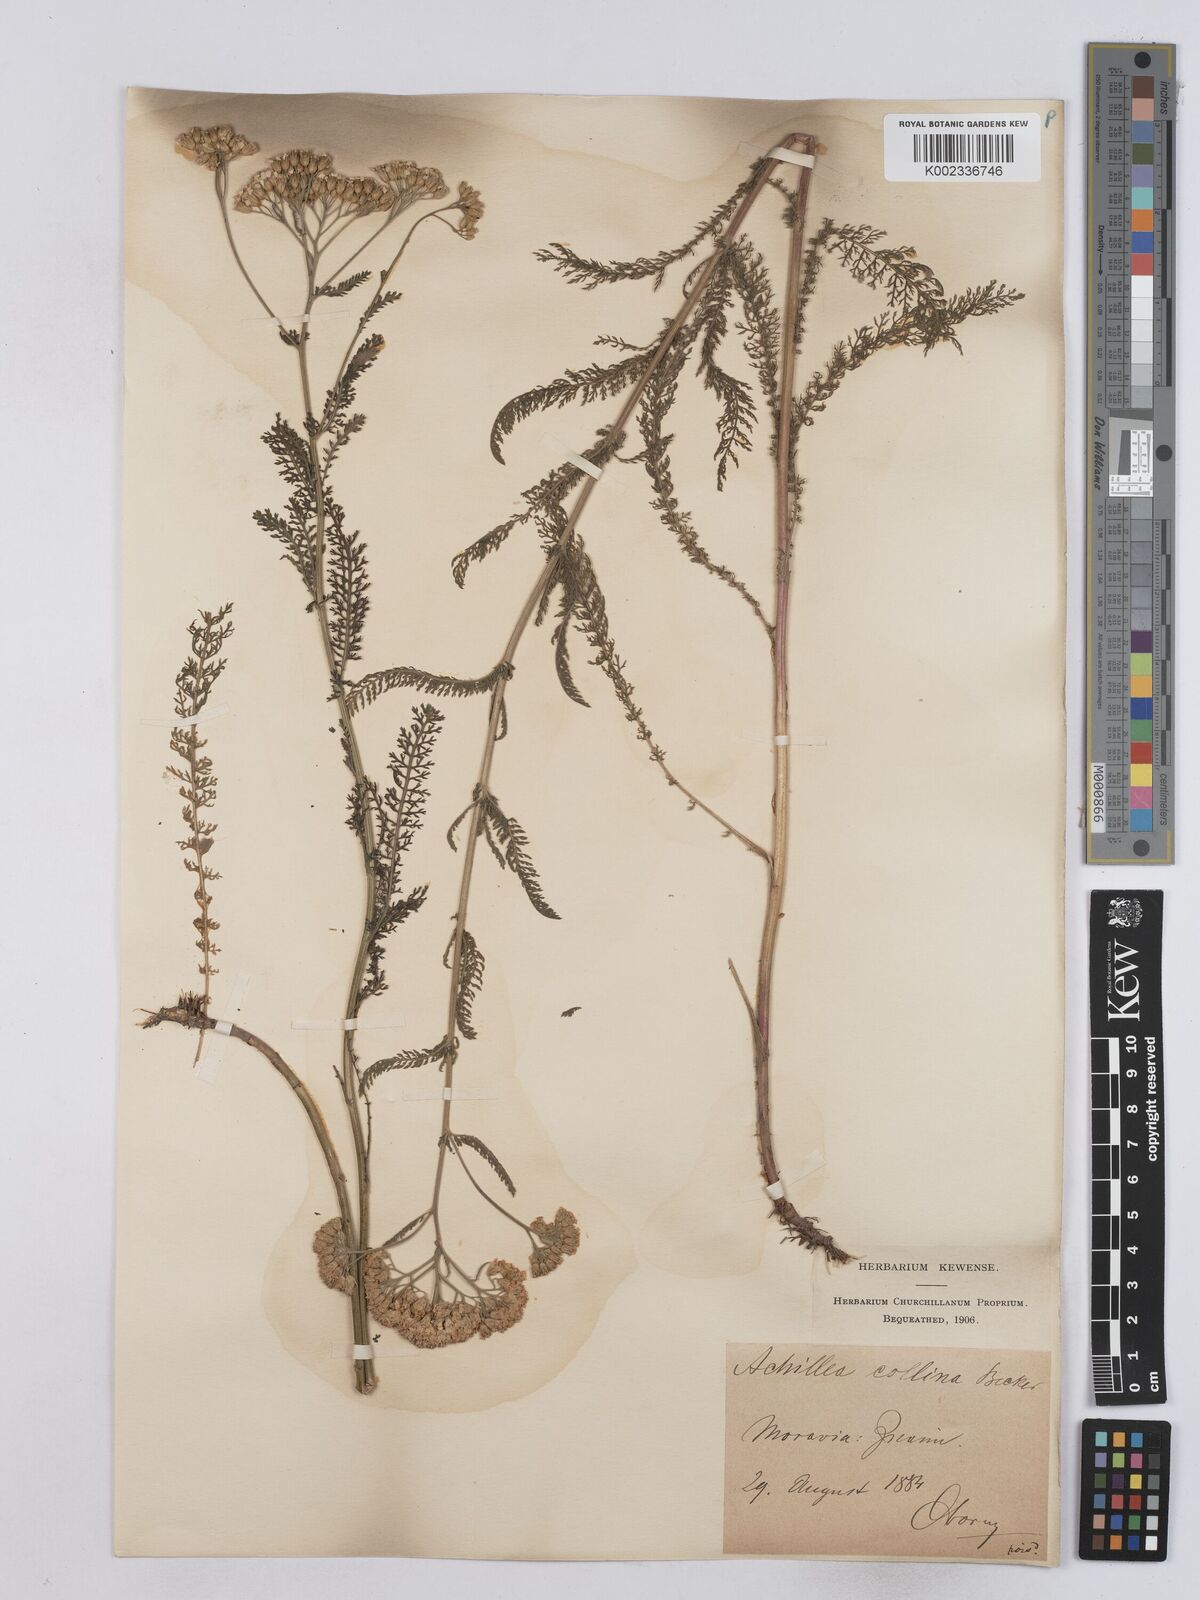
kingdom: Plantae
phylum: Tracheophyta
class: Magnoliopsida
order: Asterales
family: Asteraceae
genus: Achillea
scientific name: Achillea collina
